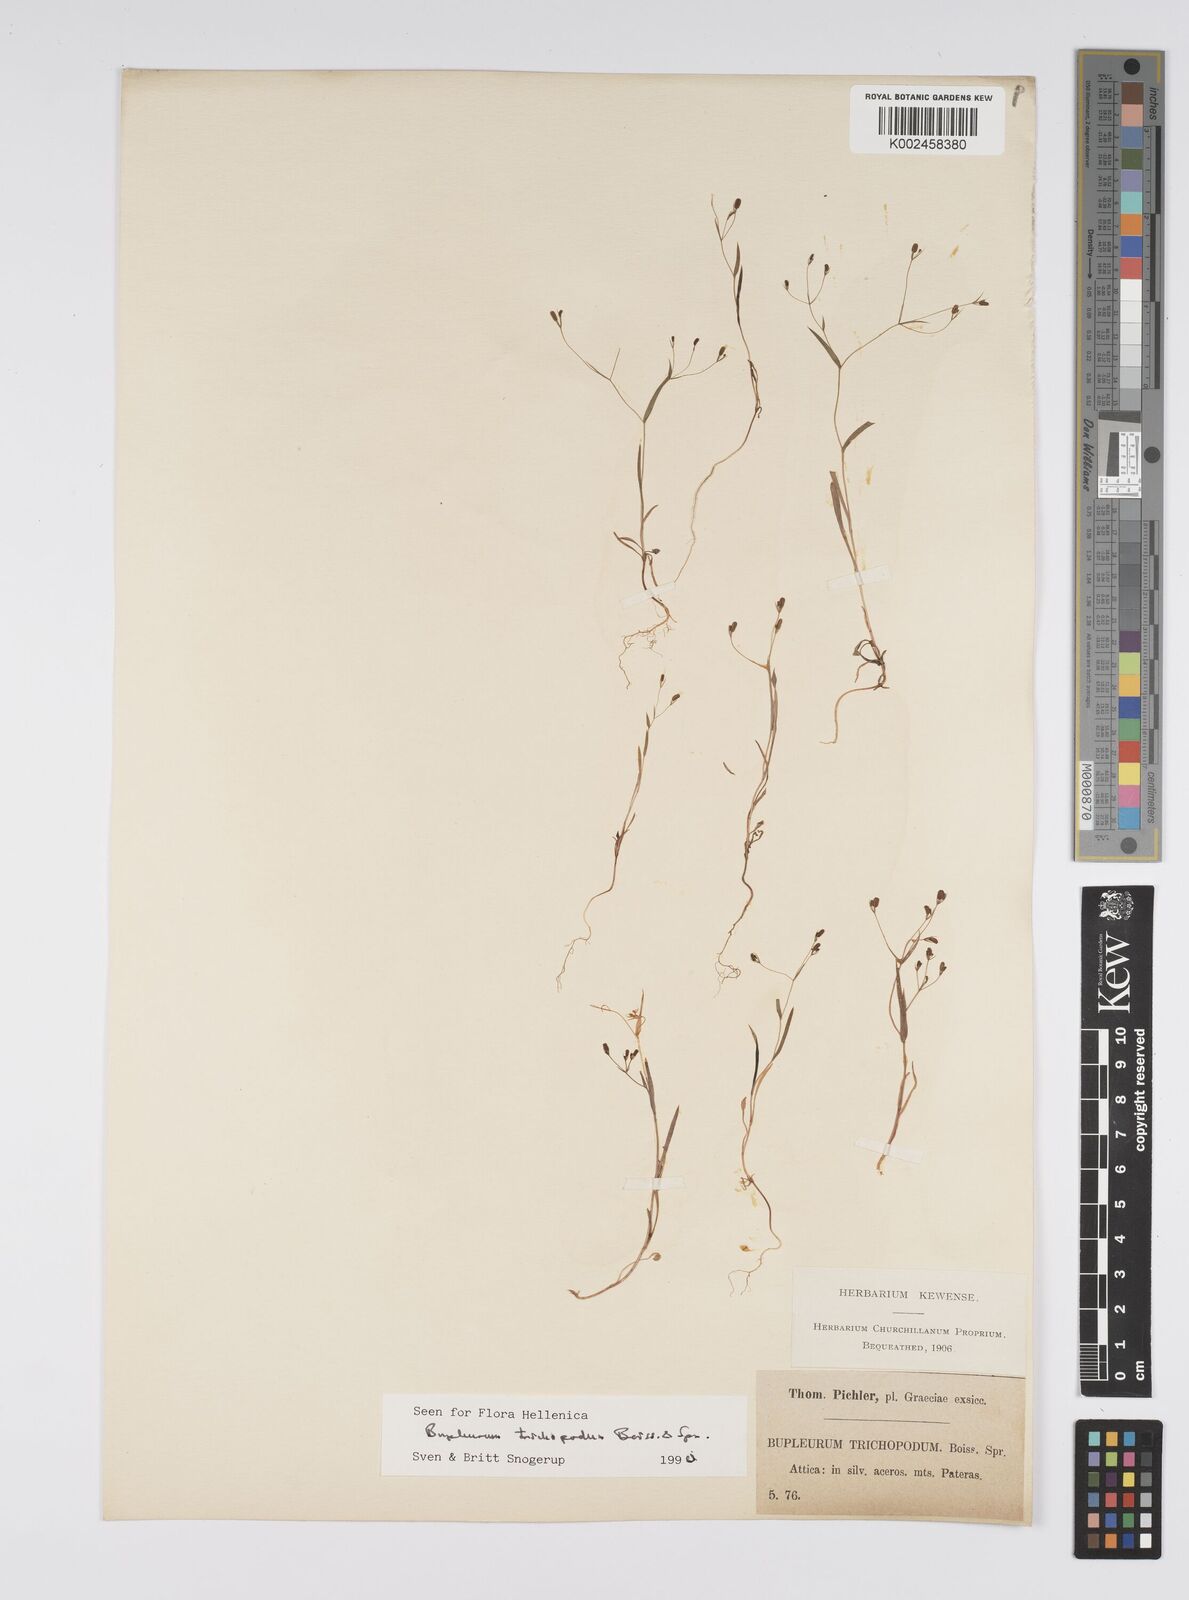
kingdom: Plantae
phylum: Tracheophyta
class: Magnoliopsida
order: Apiales
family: Apiaceae
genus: Bupleurum
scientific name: Bupleurum trichopodum
